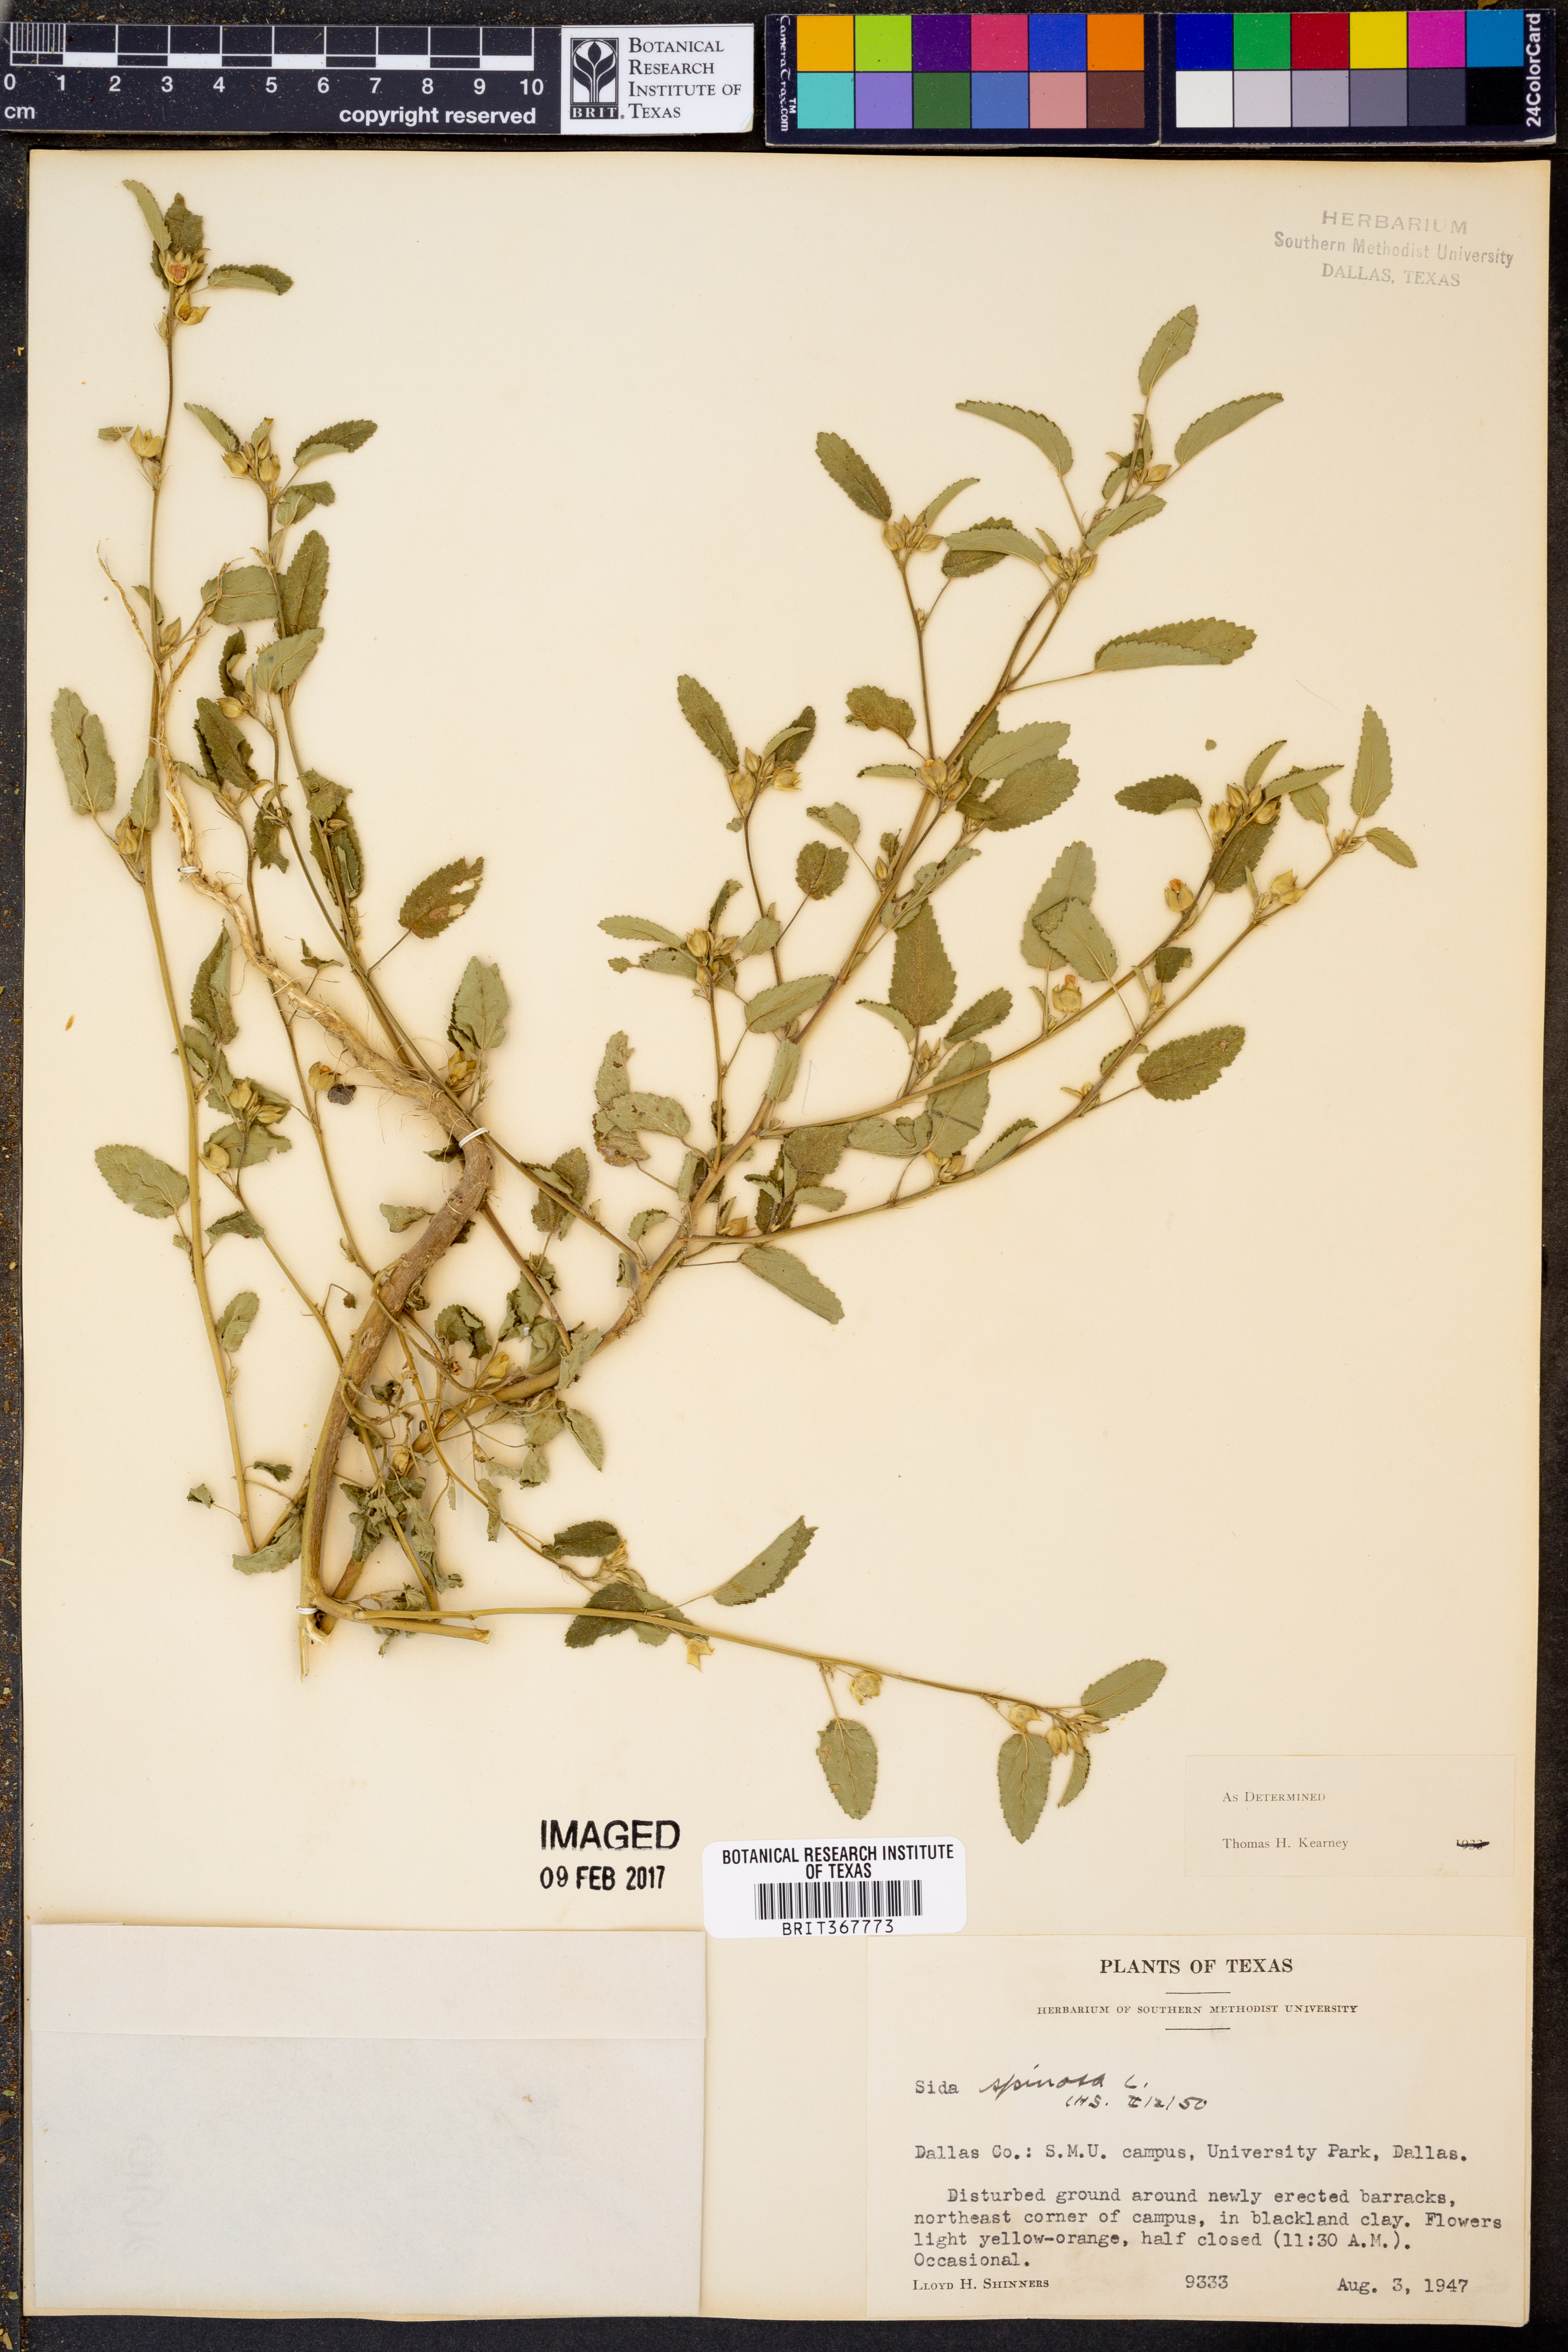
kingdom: Plantae
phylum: Tracheophyta
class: Magnoliopsida
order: Malvales
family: Malvaceae
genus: Sida
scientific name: Sida spinosa
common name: Prickly fanpetals
